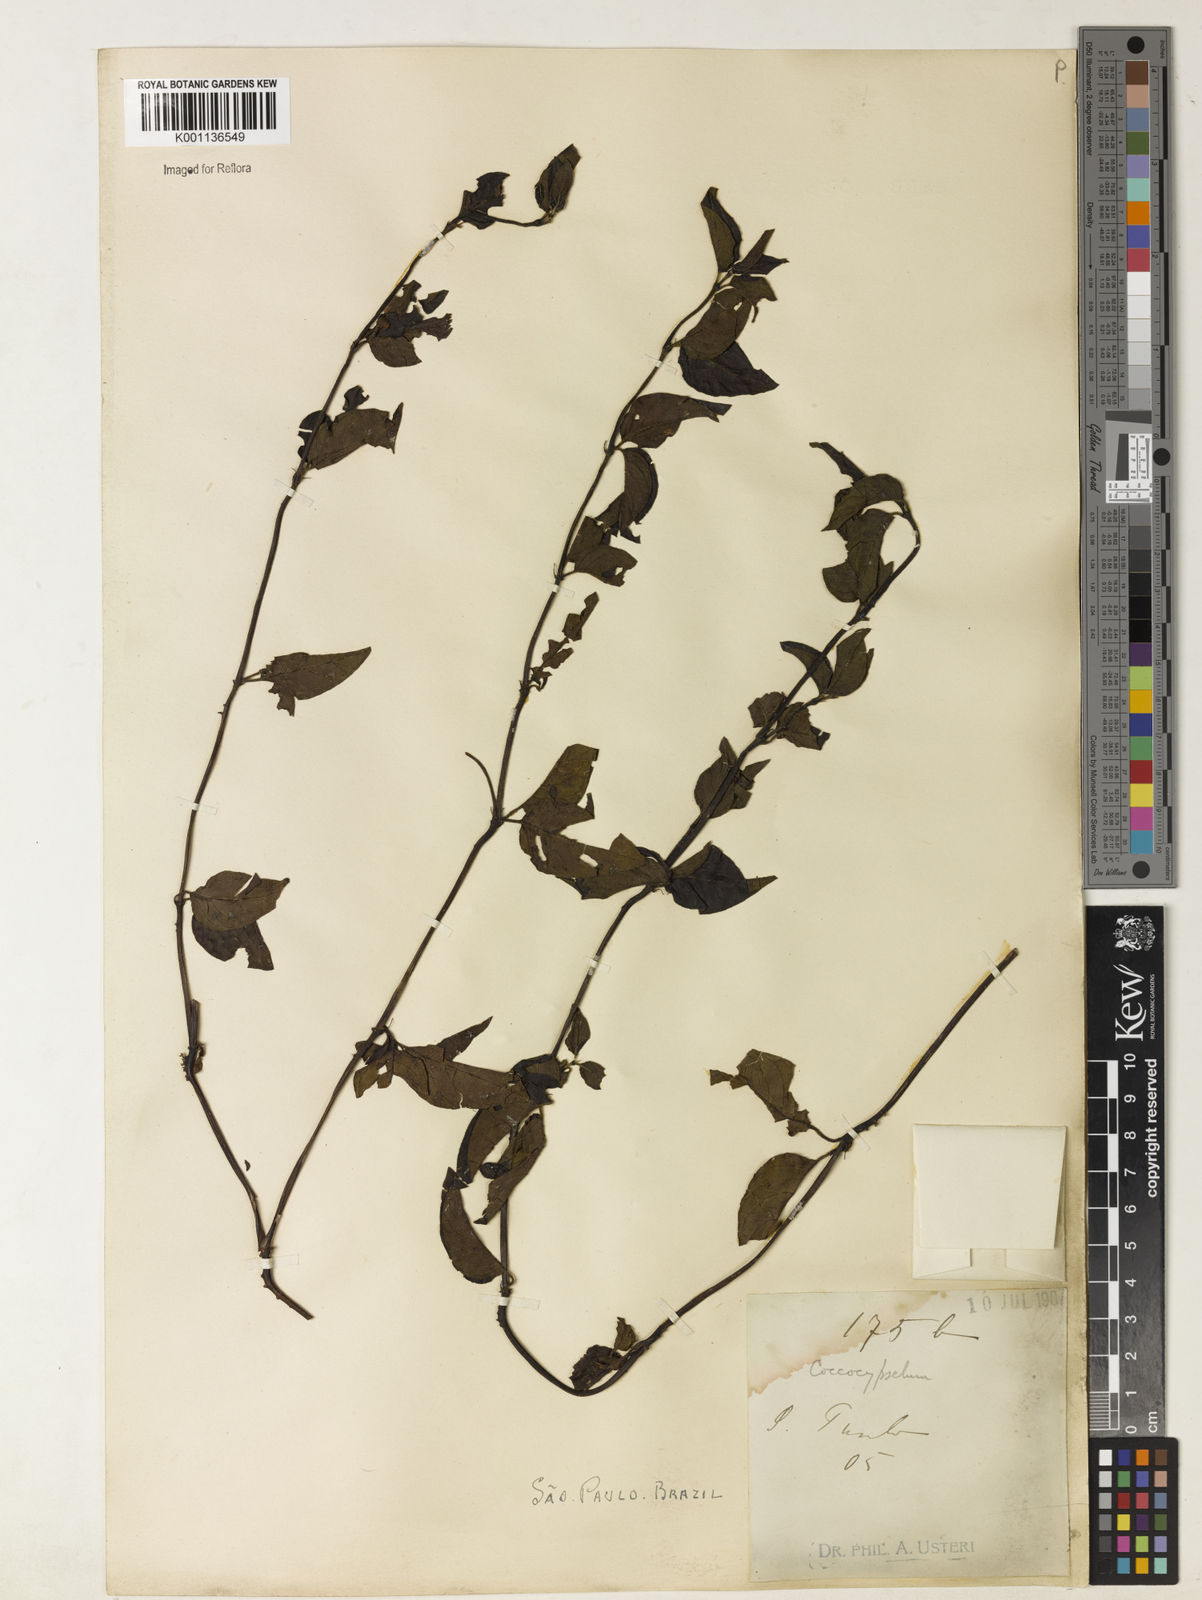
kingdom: Plantae
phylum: Tracheophyta
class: Magnoliopsida
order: Gentianales
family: Rubiaceae
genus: Coccocypselum
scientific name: Coccocypselum condalia
